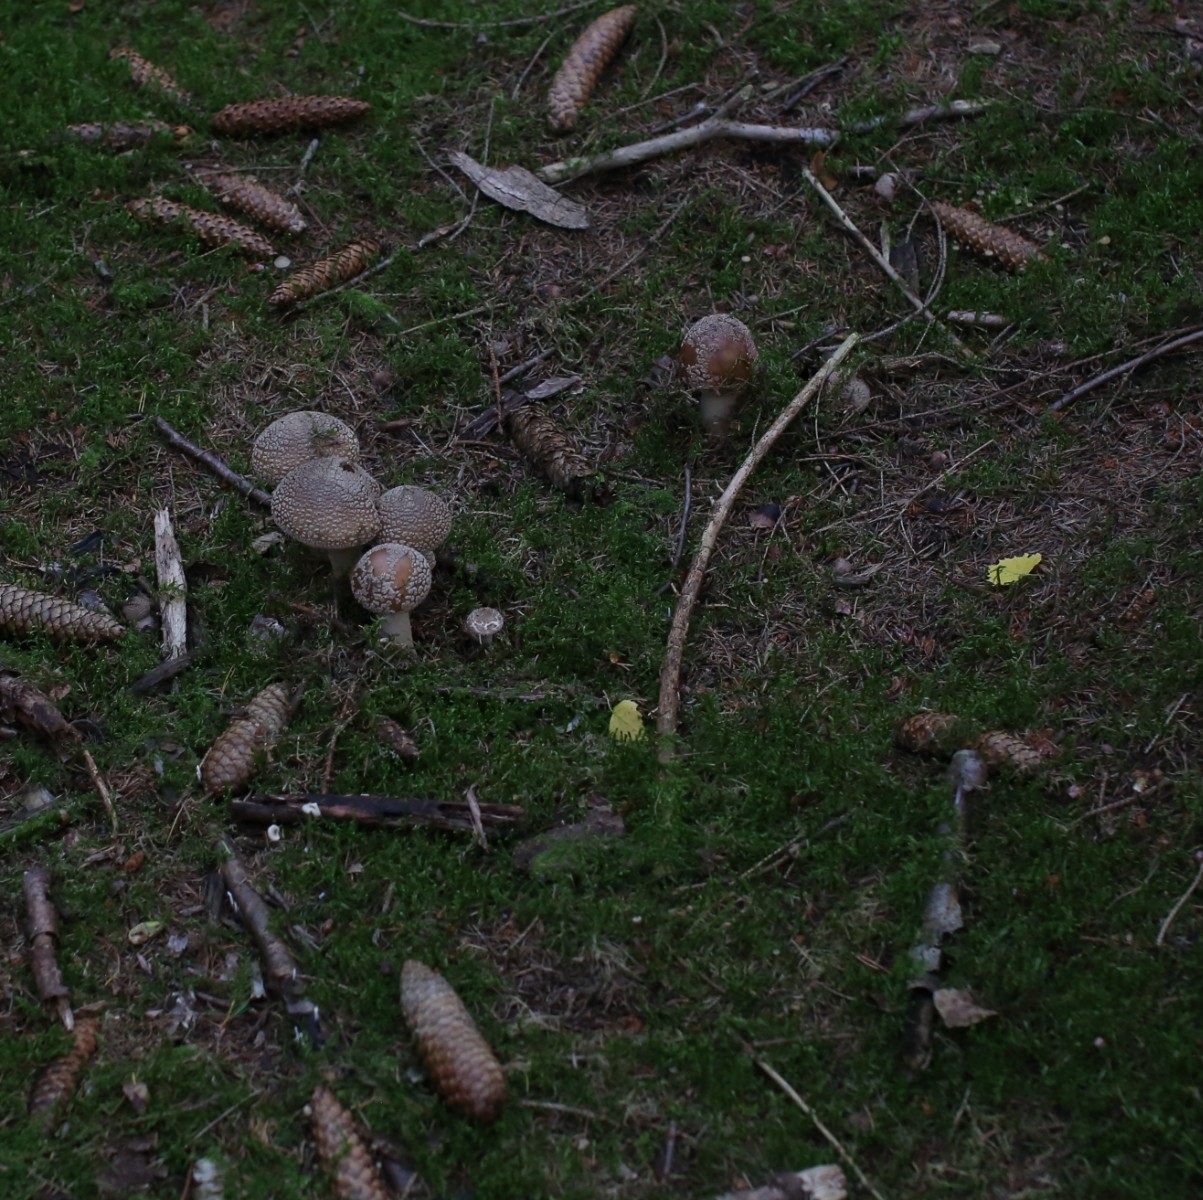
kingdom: Fungi
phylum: Basidiomycota
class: Agaricomycetes
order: Agaricales
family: Amanitaceae
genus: Amanita
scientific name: Amanita rubescens
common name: rødmende fluesvamp
